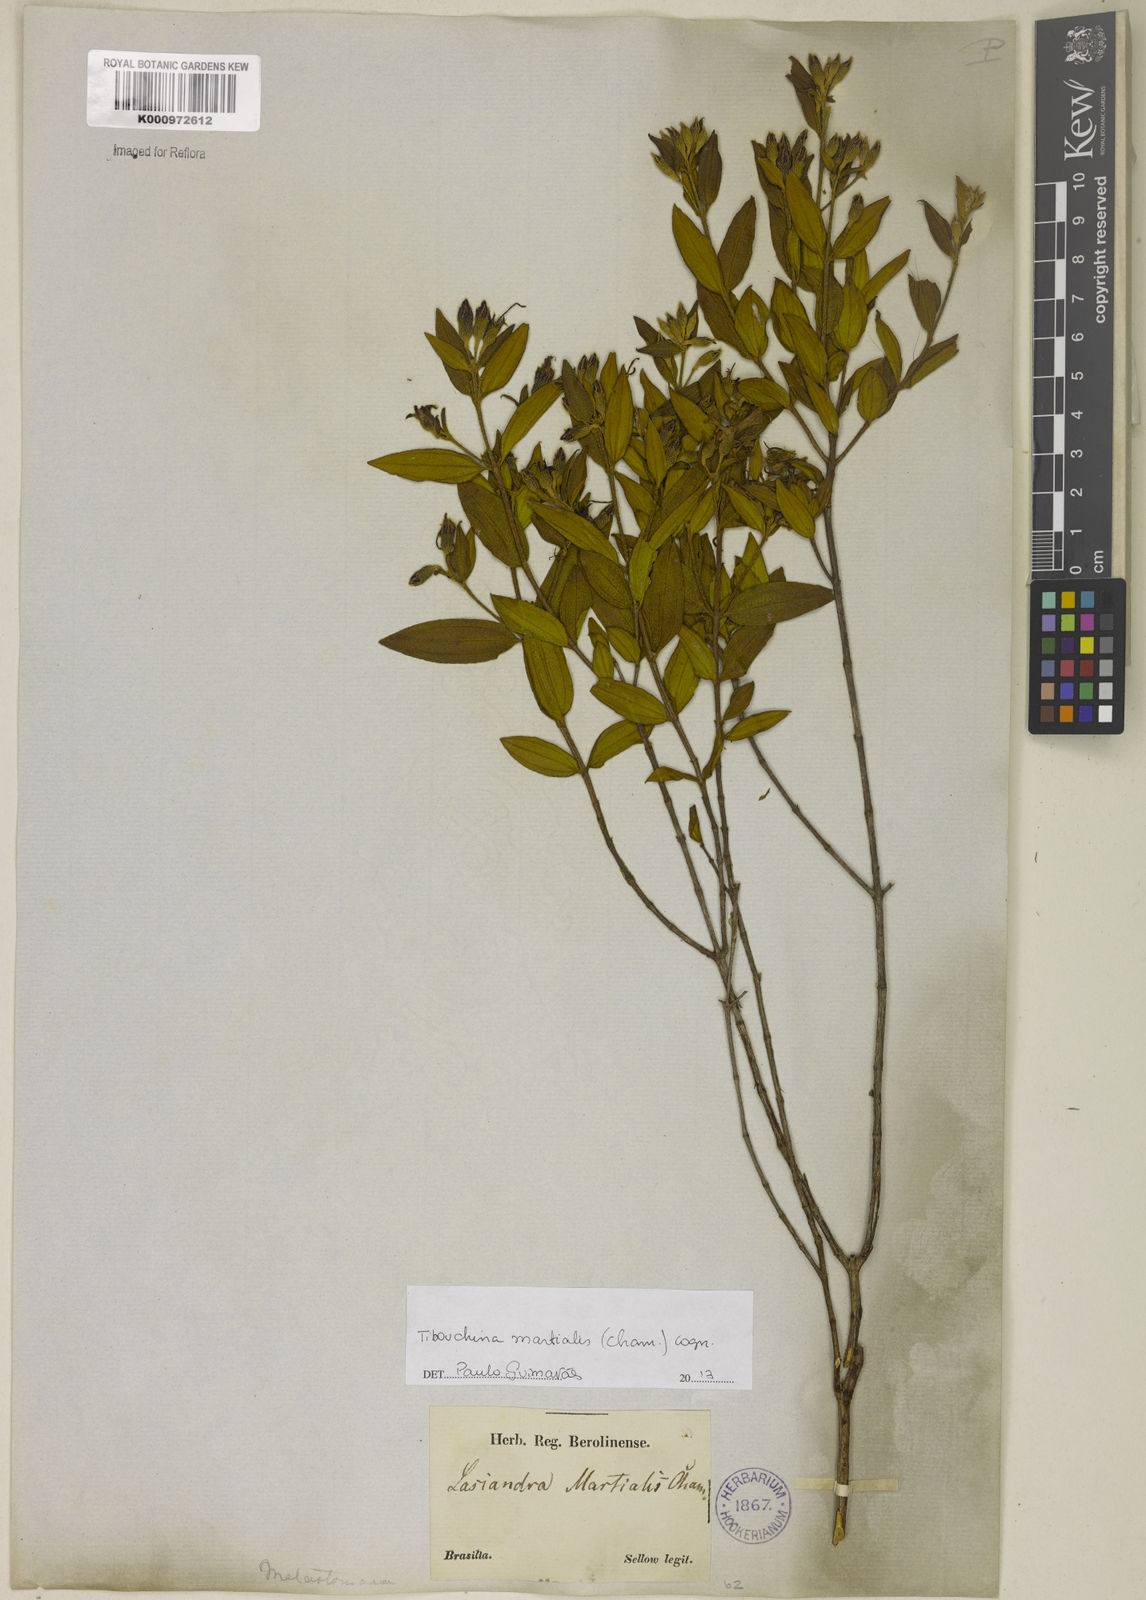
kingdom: Plantae
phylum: Tracheophyta
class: Magnoliopsida
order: Myrtales
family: Melastomataceae
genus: Pleroma
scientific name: Pleroma martiale
